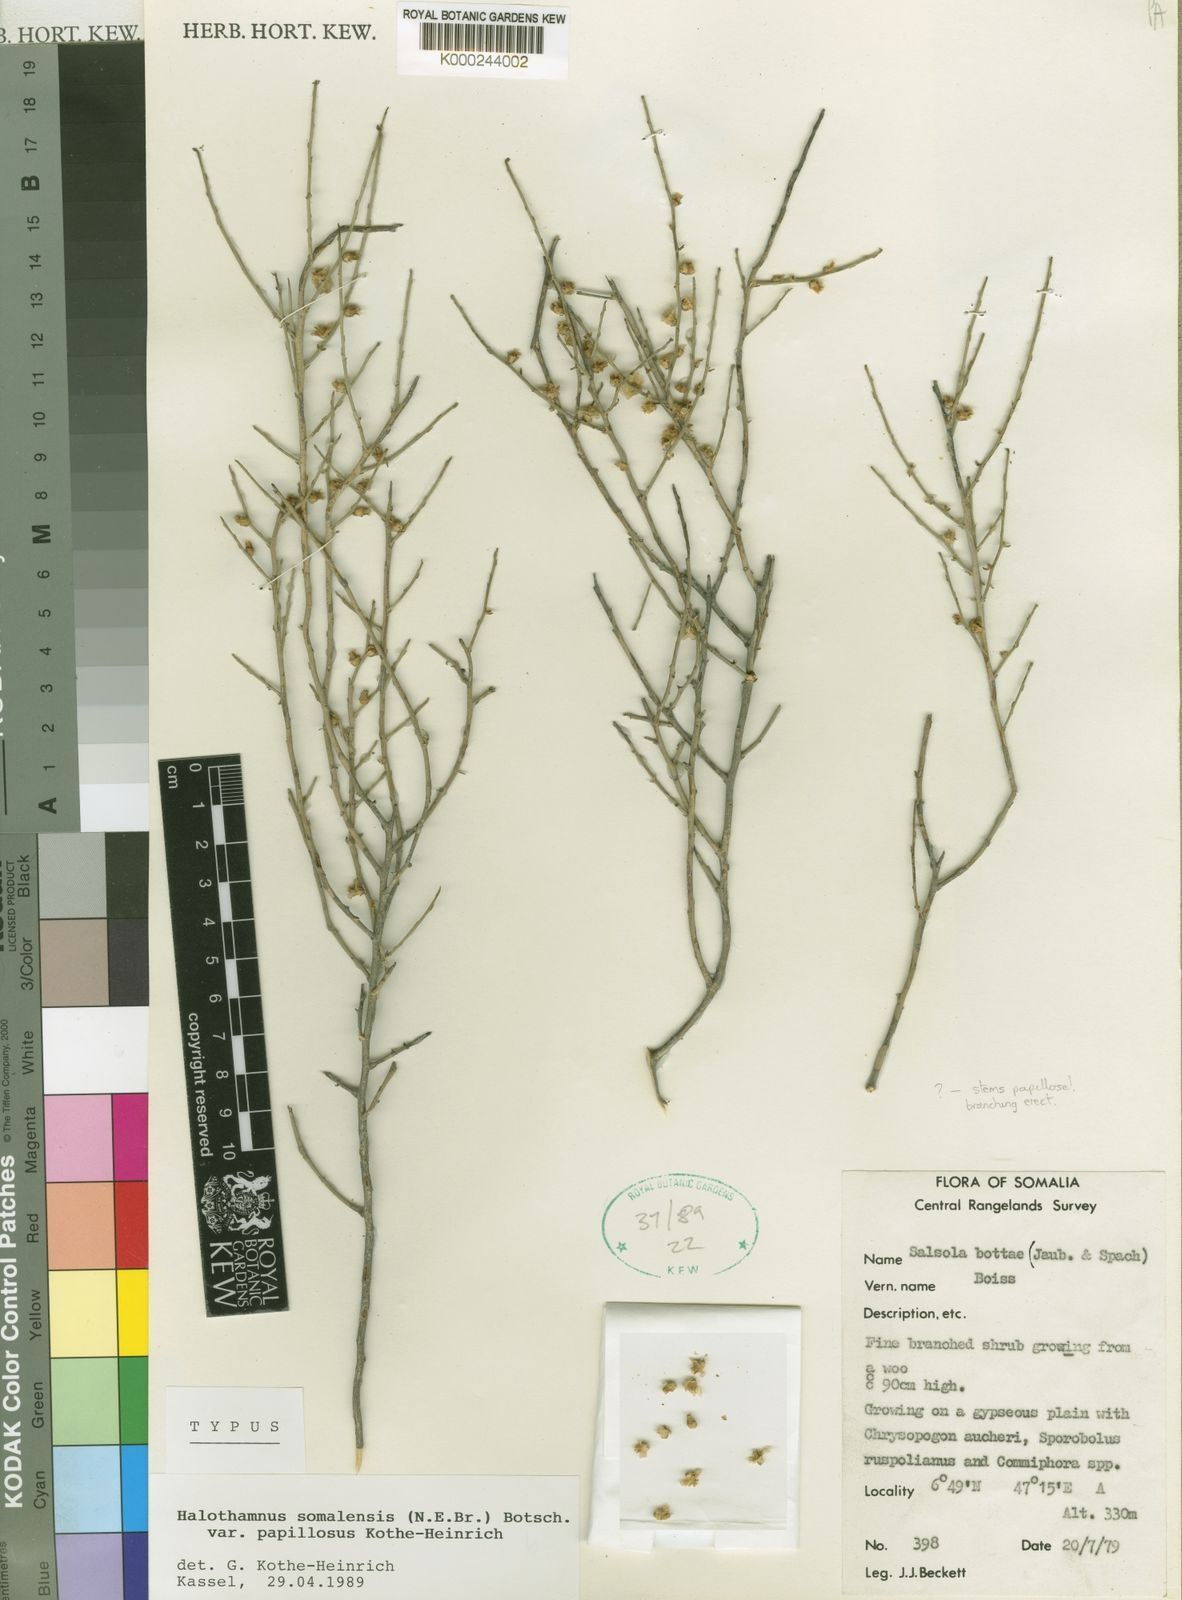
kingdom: Plantae
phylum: Tracheophyta
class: Magnoliopsida
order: Caryophyllales
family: Amaranthaceae
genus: Halothamnus
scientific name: Halothamnus somalensis
